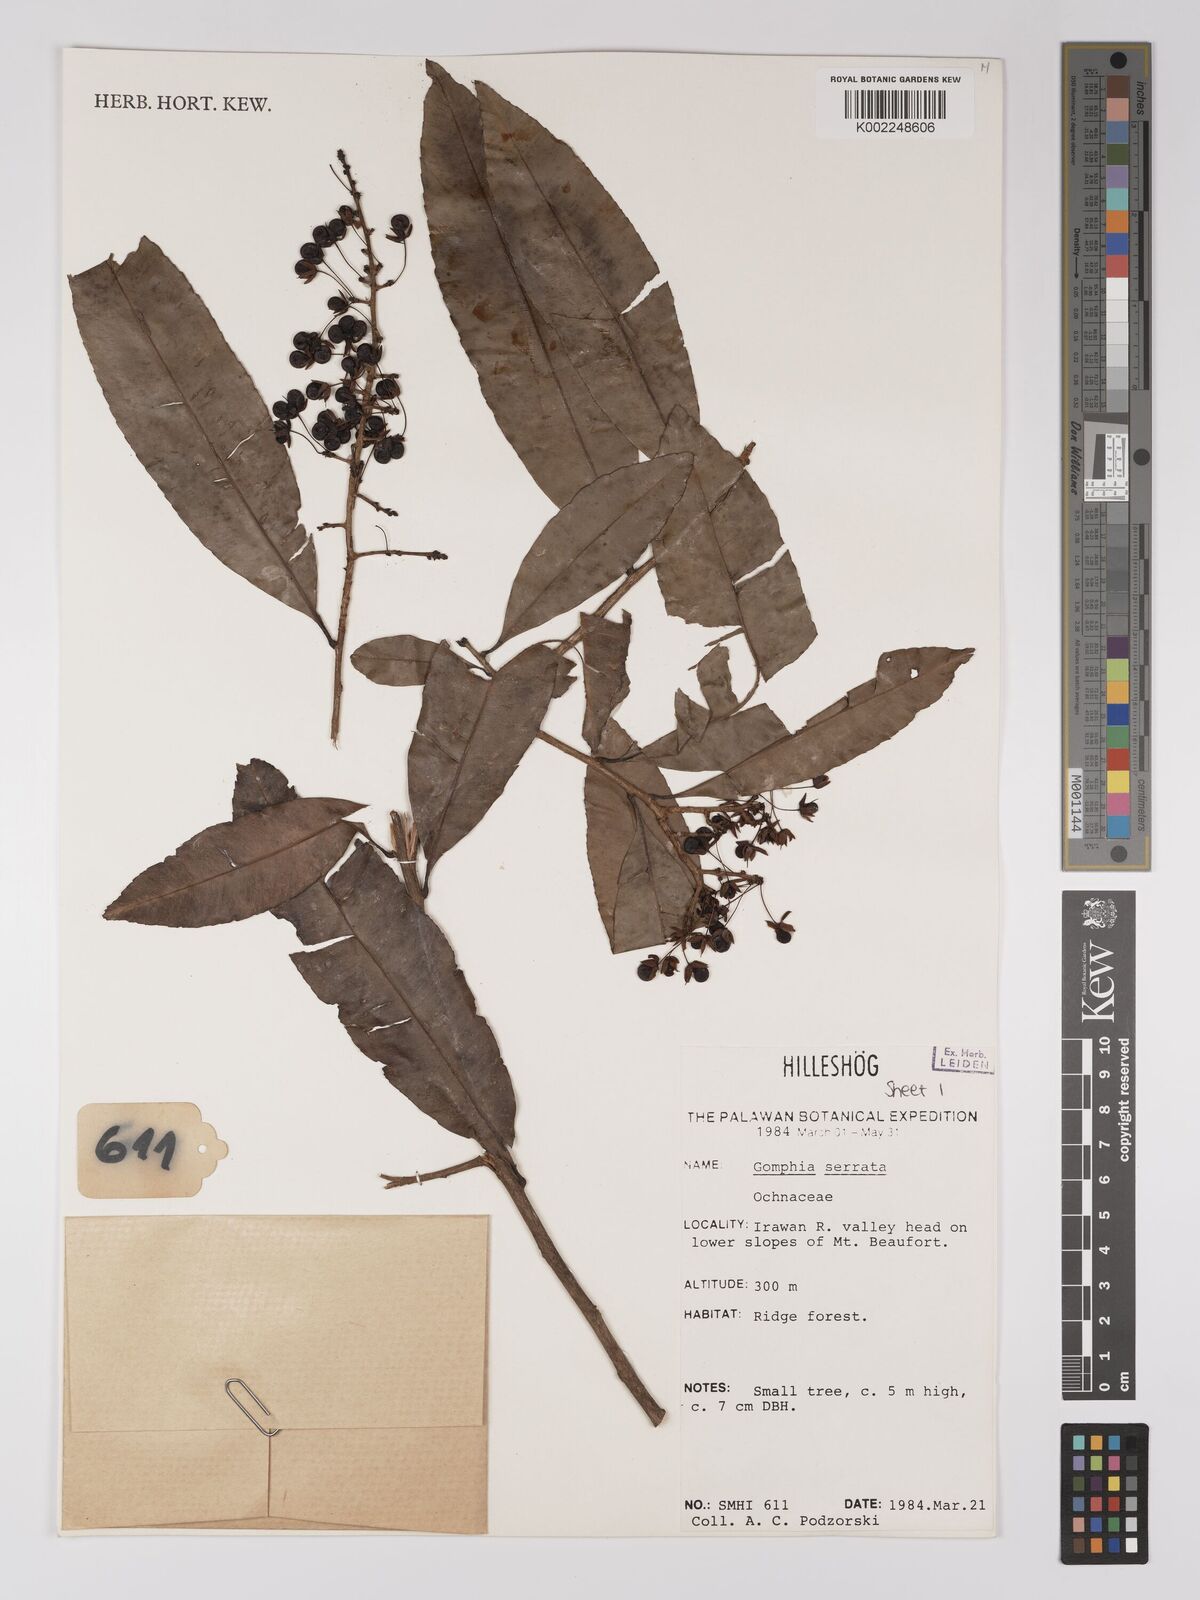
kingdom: Plantae
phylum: Tracheophyta
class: Magnoliopsida
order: Malpighiales
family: Ochnaceae
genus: Gomphia
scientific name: Gomphia serrata
